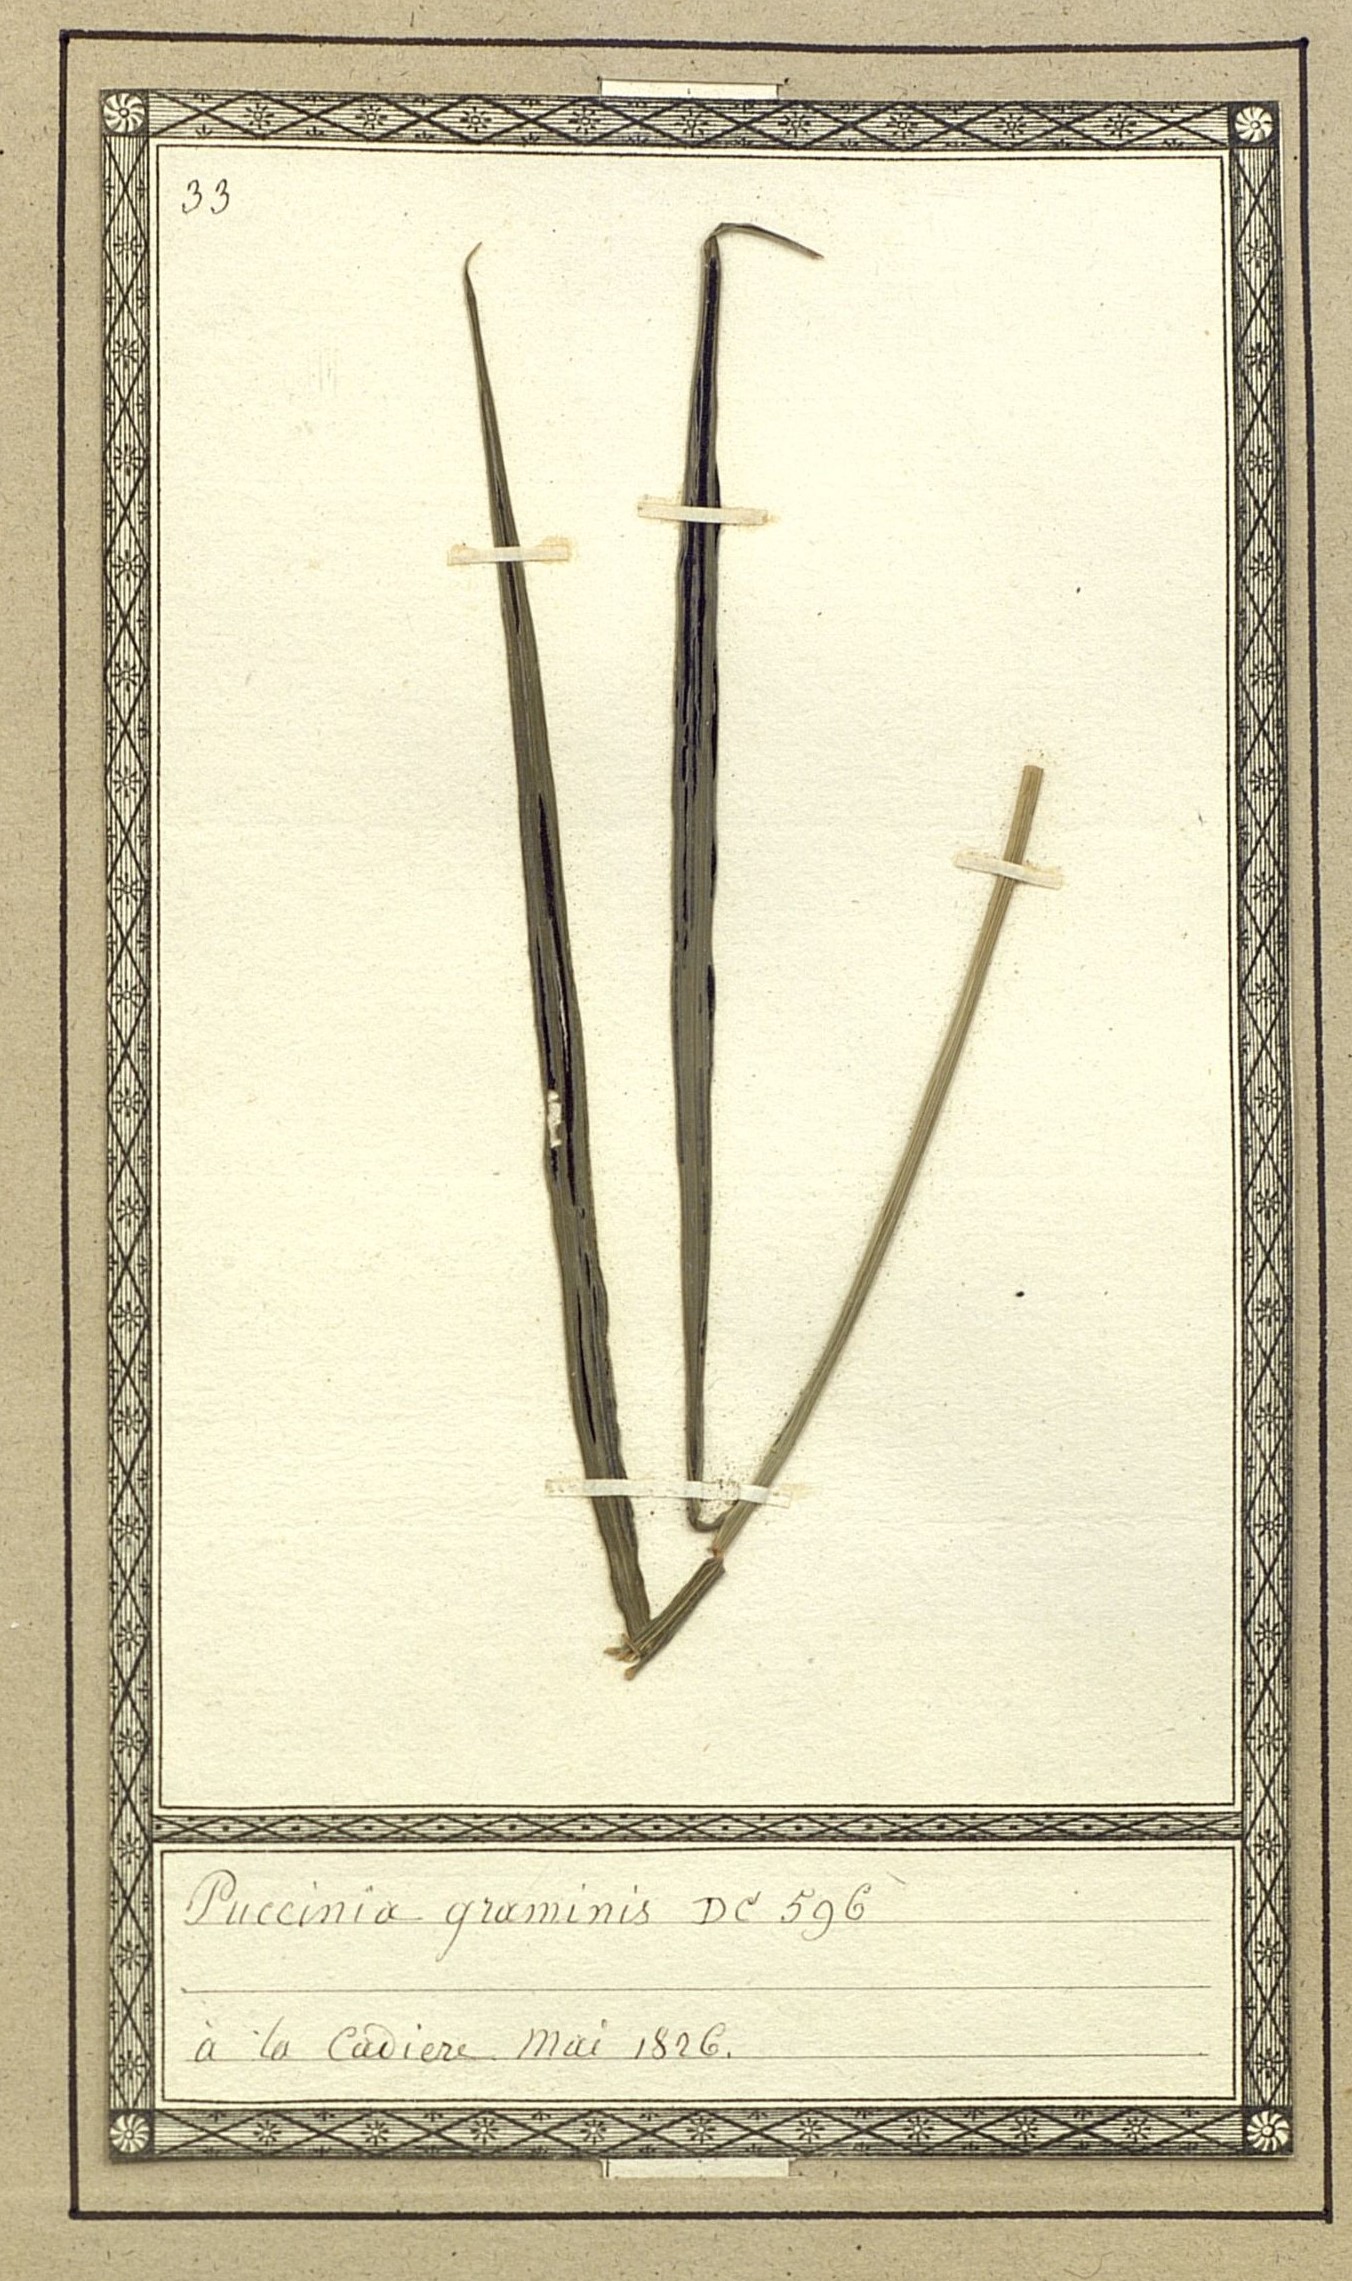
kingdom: Fungi
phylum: Basidiomycota
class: Pucciniomycetes
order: Pucciniales
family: Pucciniaceae
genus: Puccinia
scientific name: Puccinia graminis
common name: Black stem rust
